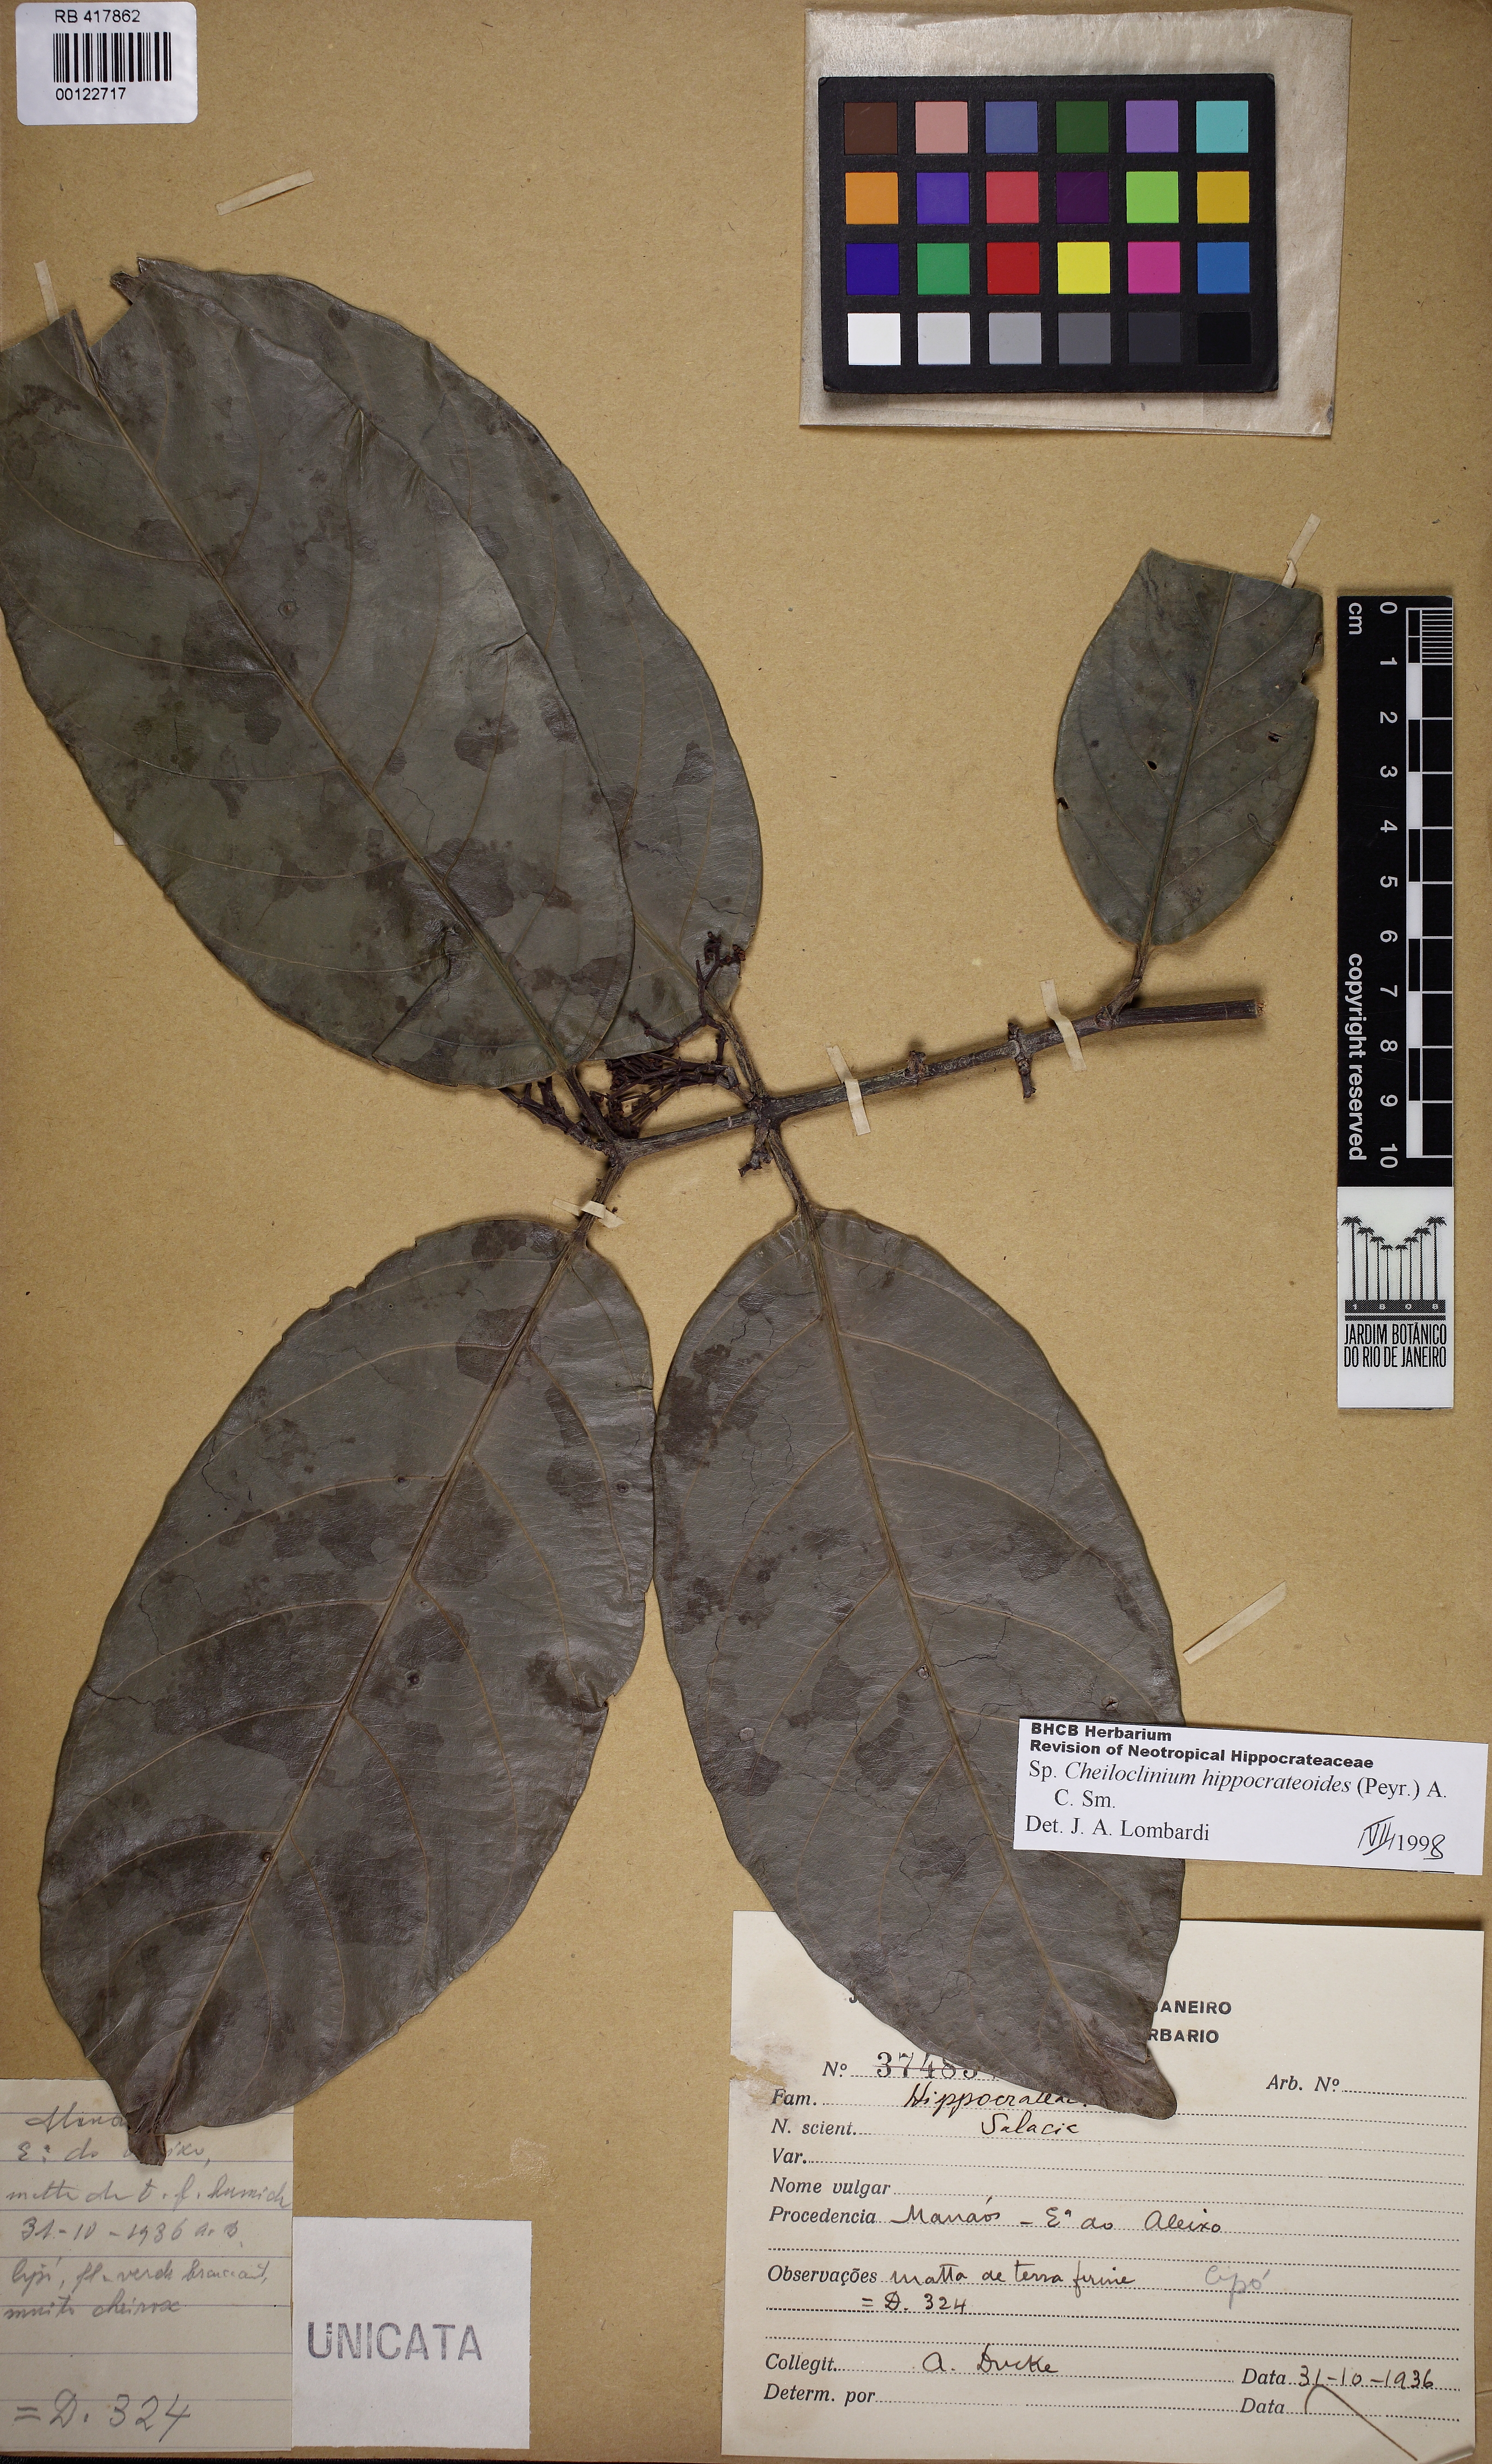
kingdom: Plantae
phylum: Tracheophyta
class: Magnoliopsida
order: Celastrales
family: Celastraceae
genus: Cheiloclinium
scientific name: Cheiloclinium hippocrateoides
